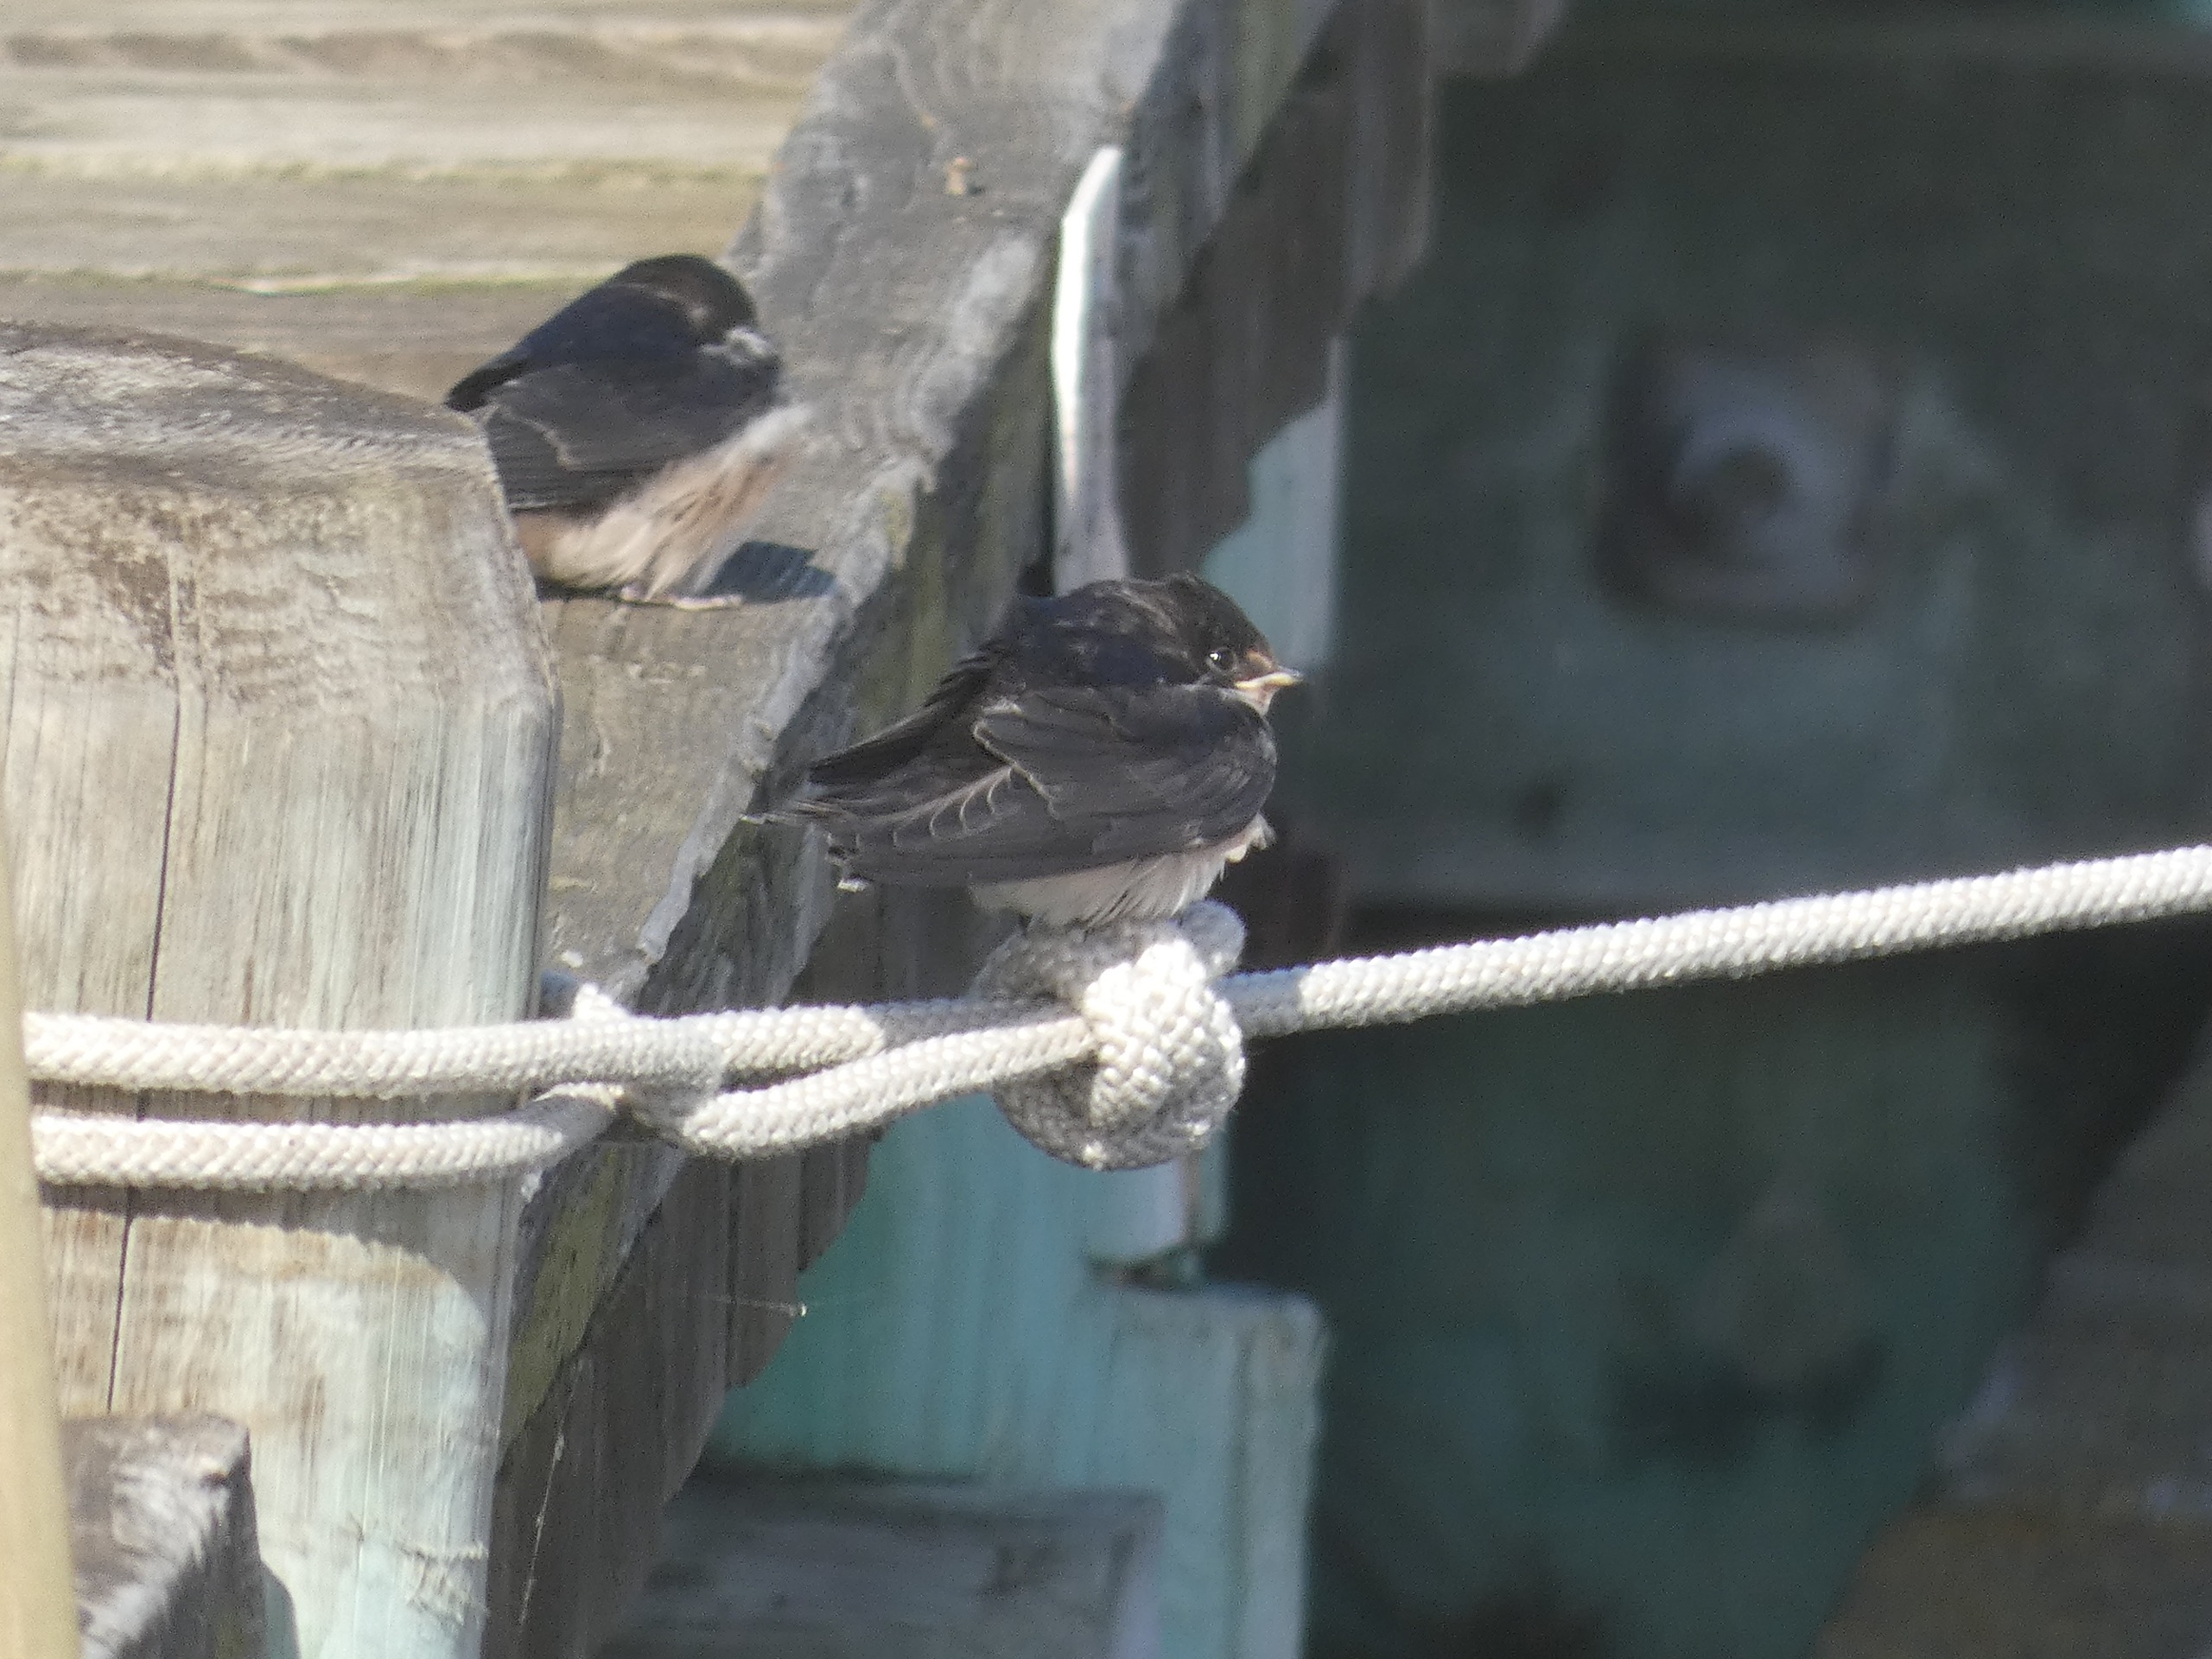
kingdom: Animalia
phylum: Chordata
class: Aves
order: Passeriformes
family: Hirundinidae
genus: Hirundo
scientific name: Hirundo rustica
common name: Landsvale
